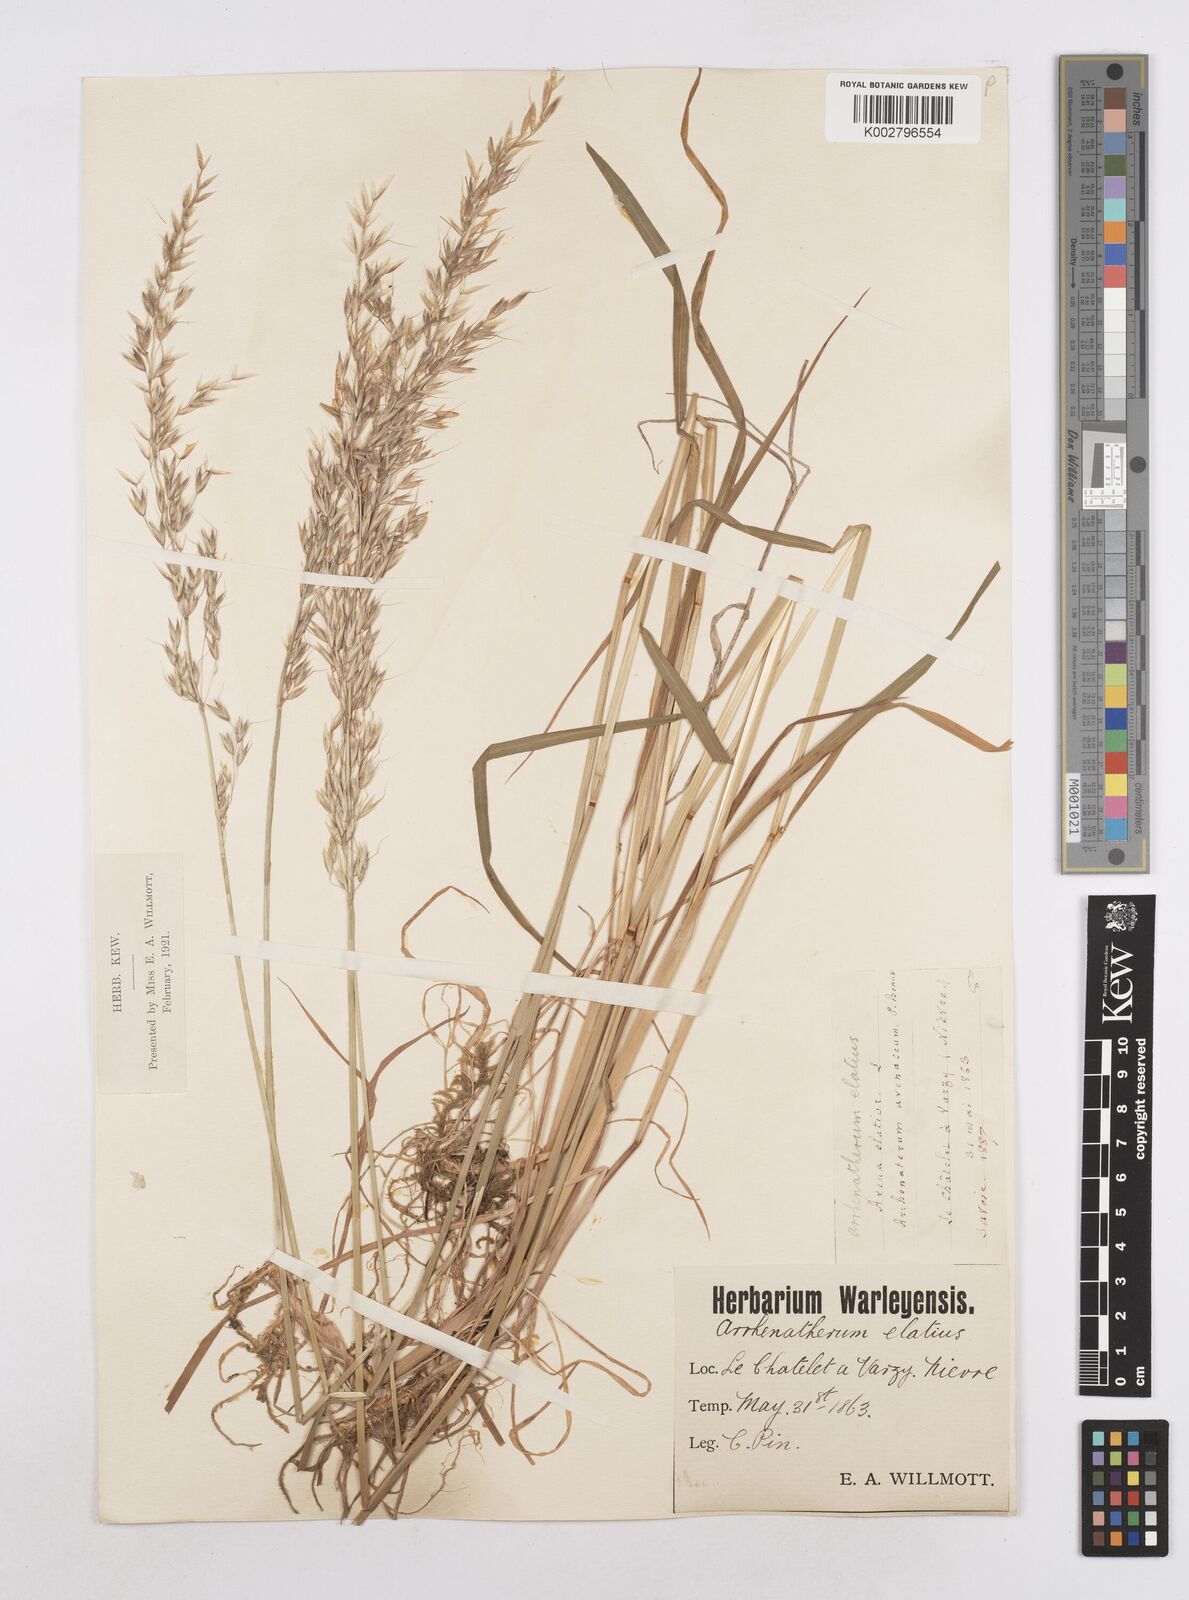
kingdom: Plantae
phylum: Tracheophyta
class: Liliopsida
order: Poales
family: Poaceae
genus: Arrhenatherum
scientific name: Arrhenatherum elatius
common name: Tall oatgrass
